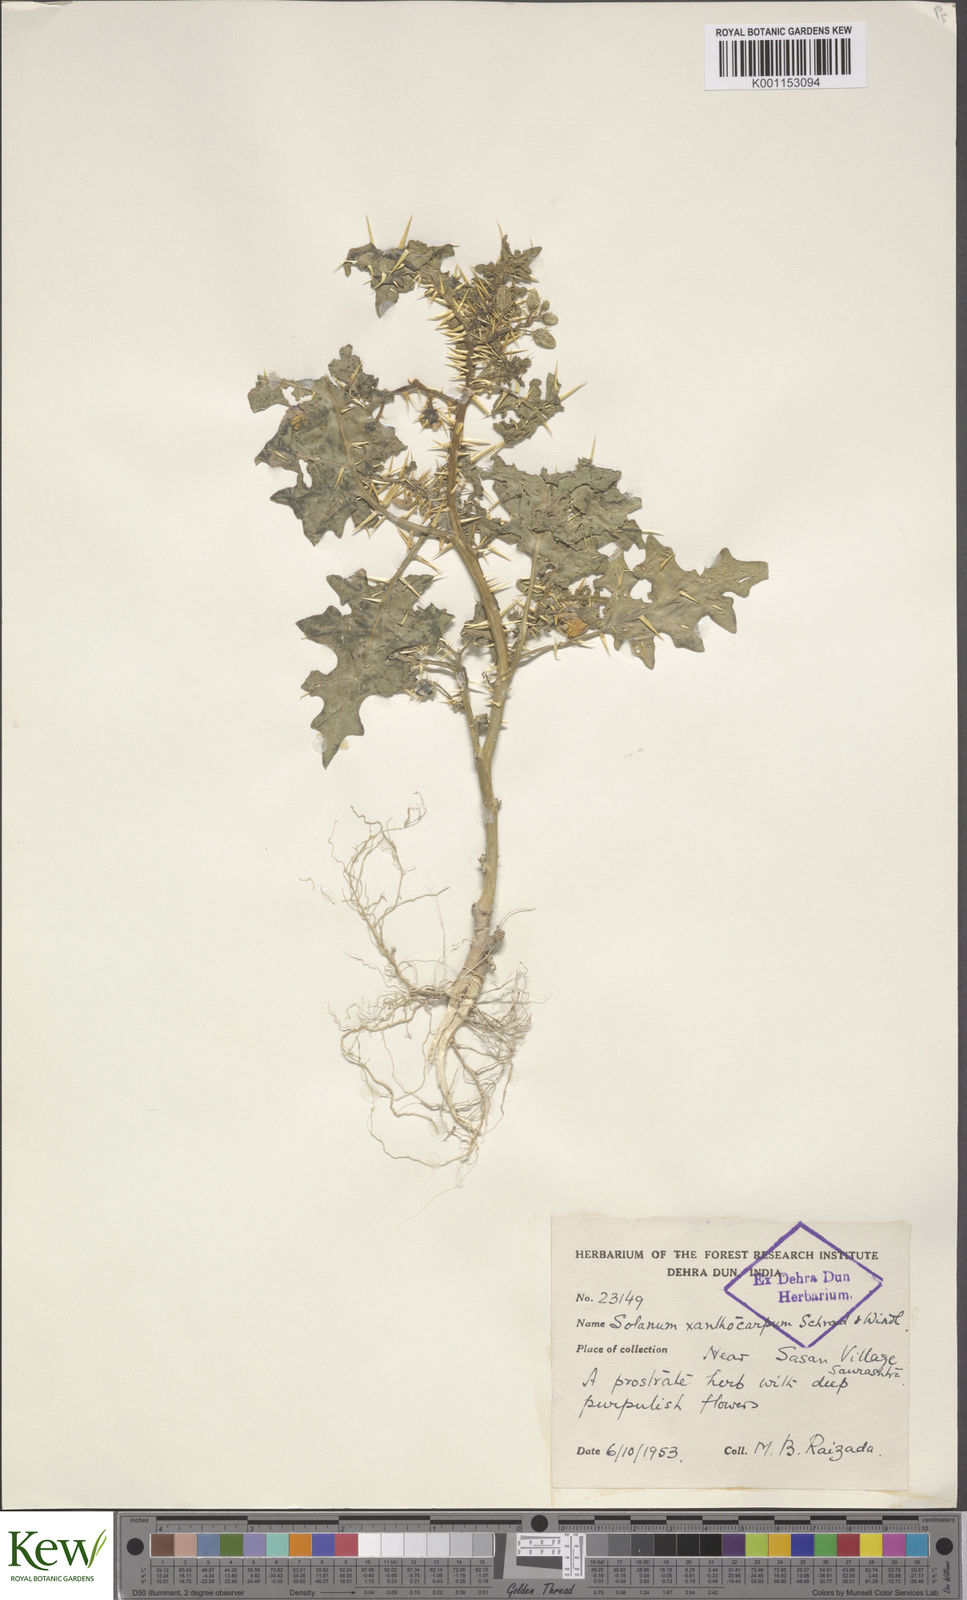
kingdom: Plantae
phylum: Tracheophyta
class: Magnoliopsida
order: Solanales
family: Solanaceae
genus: Solanum
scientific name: Solanum virginianum
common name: Surattense nightshade
